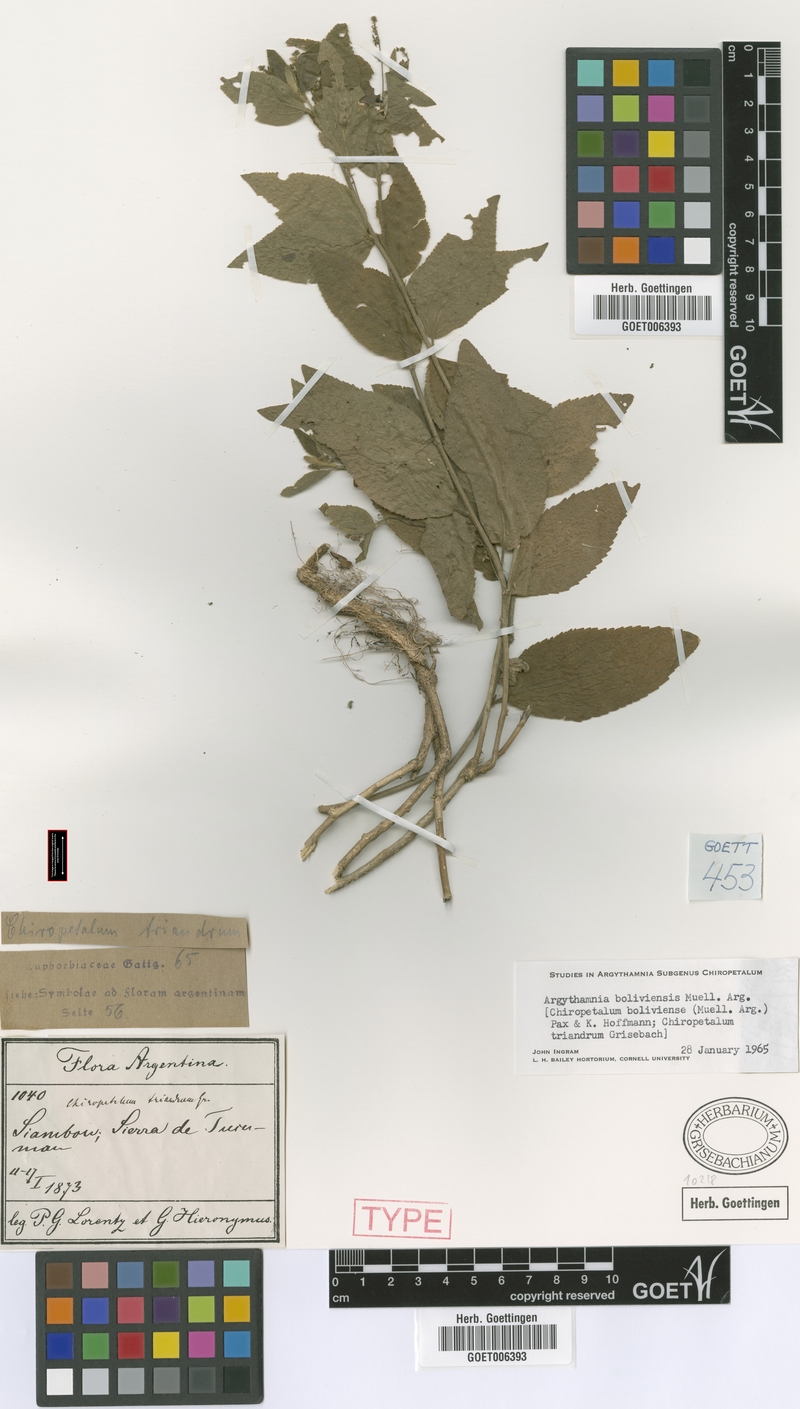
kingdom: Plantae
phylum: Tracheophyta
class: Magnoliopsida
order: Malpighiales
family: Euphorbiaceae
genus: Chiropetalum
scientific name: Chiropetalum boliviense
